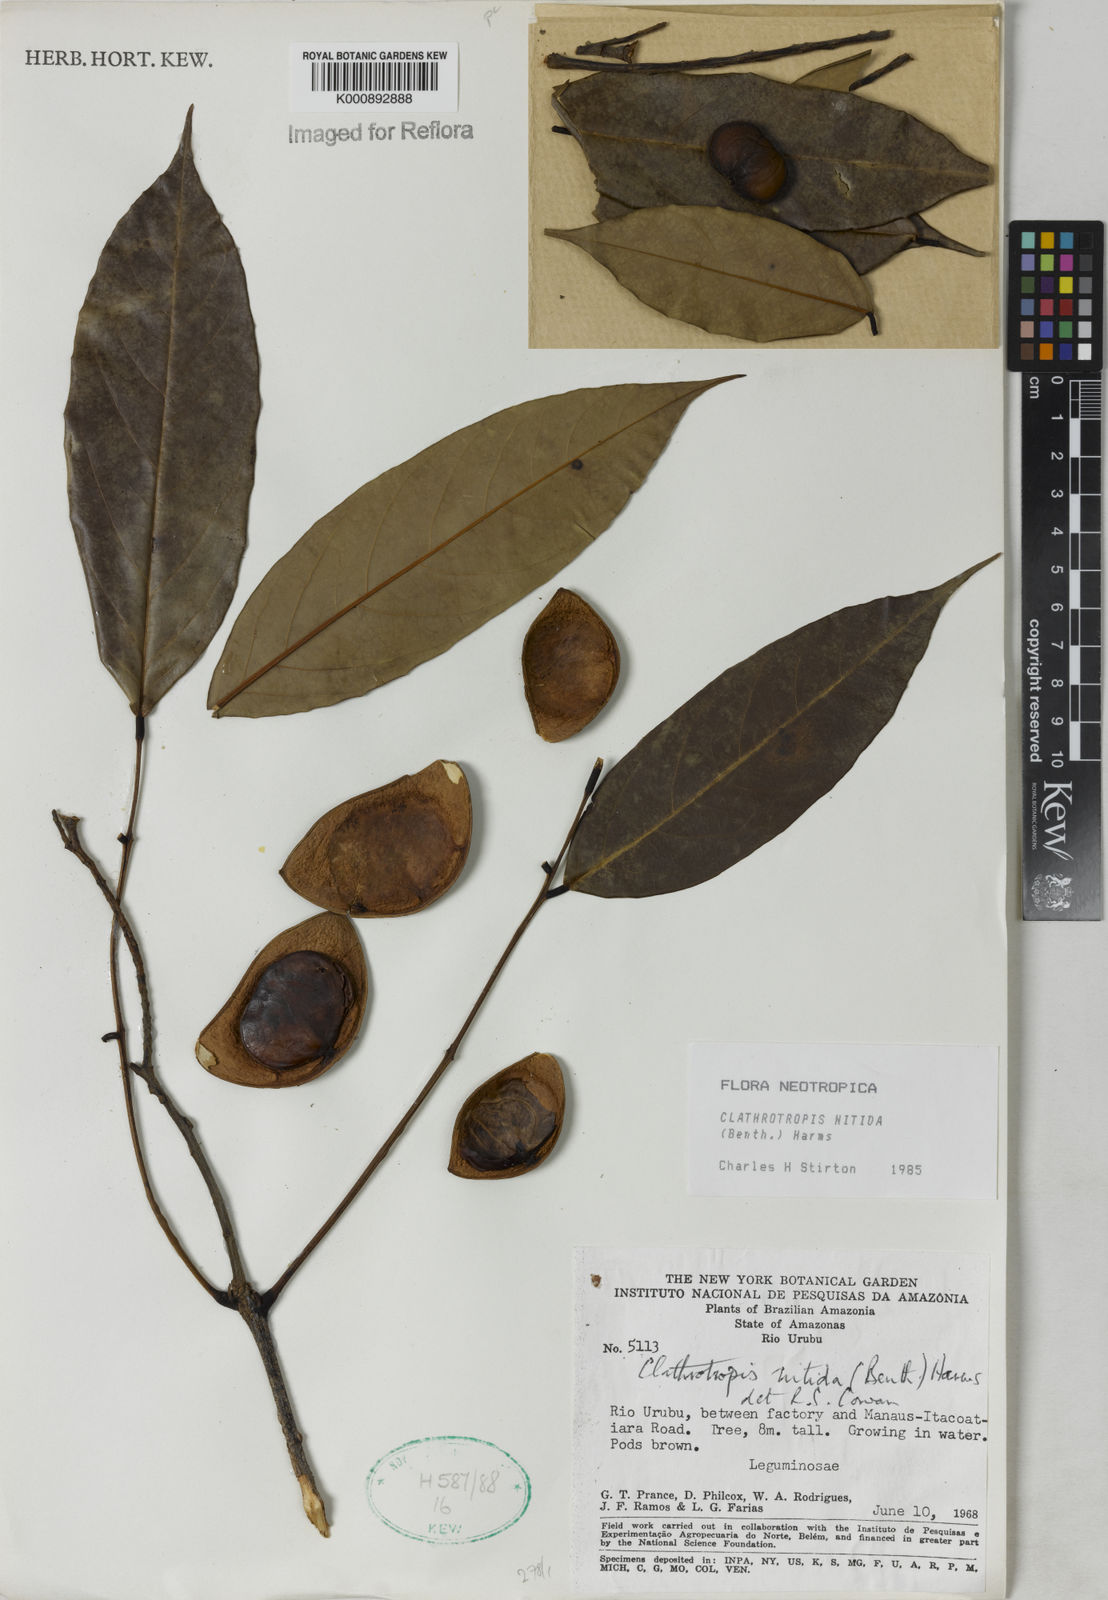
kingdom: Plantae
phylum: Tracheophyta
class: Magnoliopsida
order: Fabales
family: Fabaceae
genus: Clathrotropis
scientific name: Clathrotropis nitida
